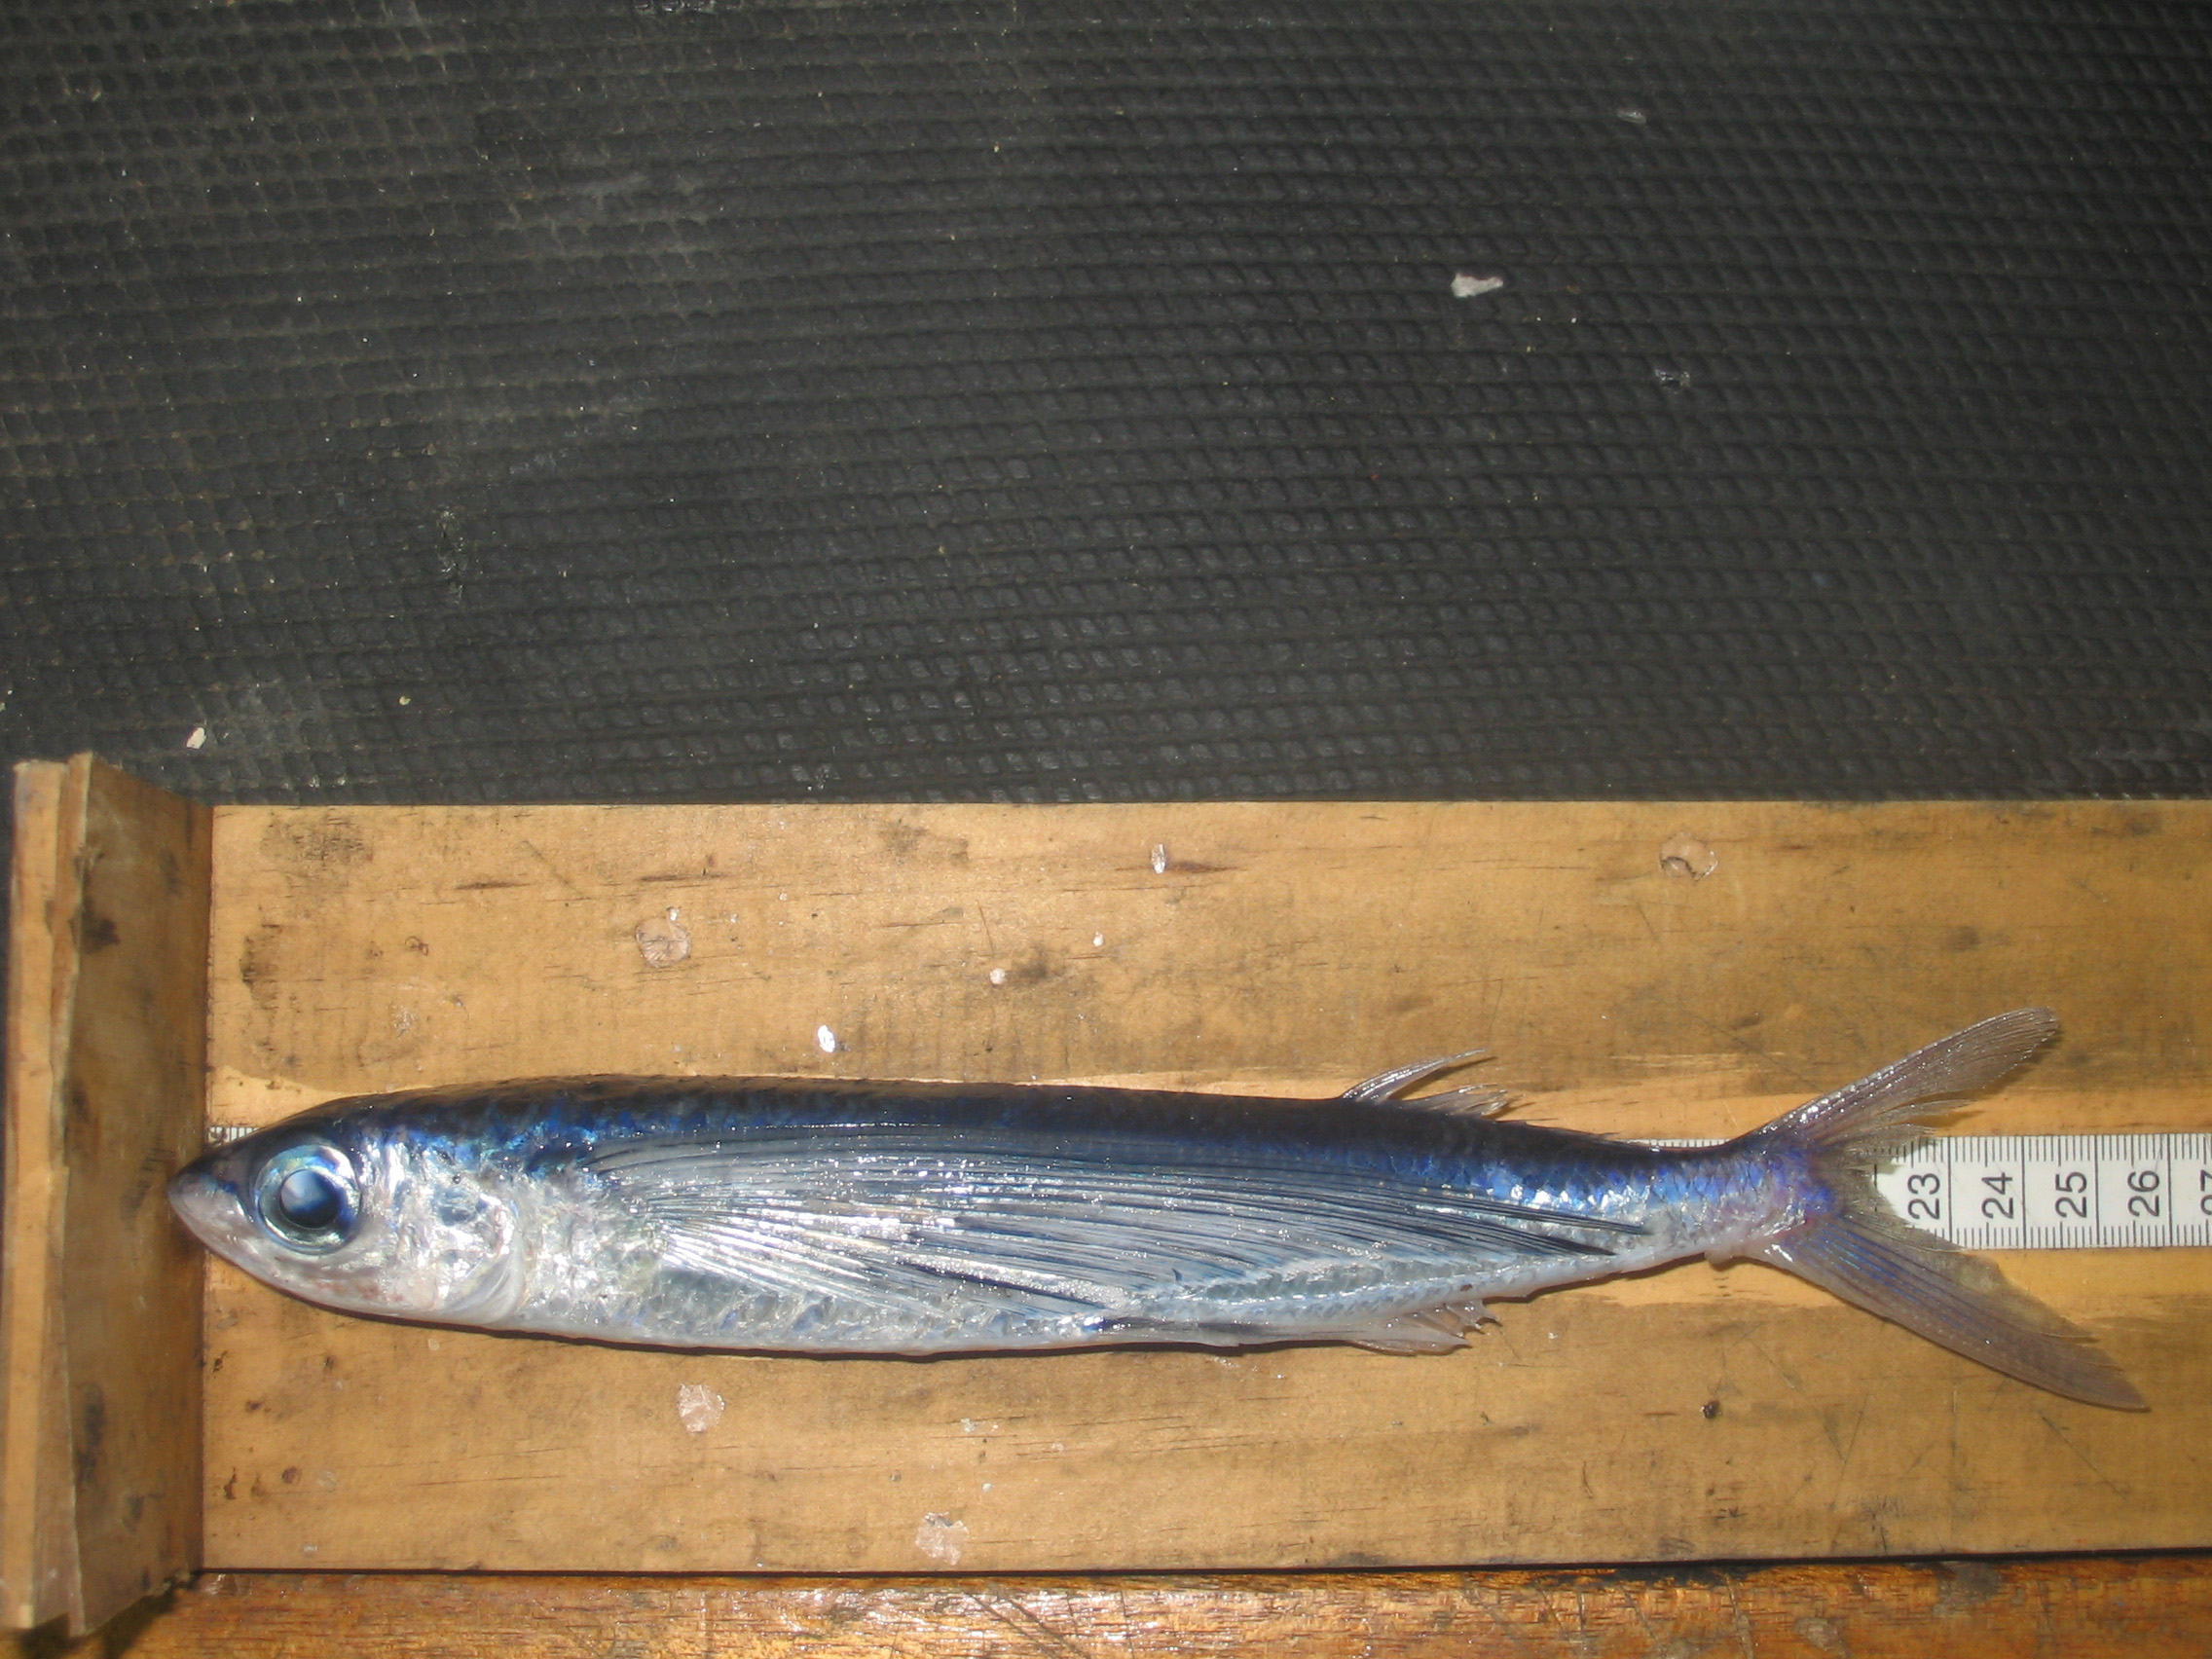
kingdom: Animalia
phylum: Chordata
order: Beloniformes
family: Exocoetidae
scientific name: Exocoetidae
